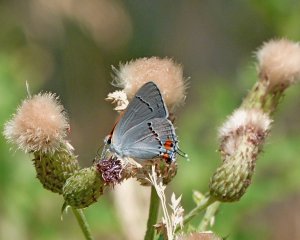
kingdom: Animalia
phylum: Arthropoda
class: Insecta
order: Lepidoptera
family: Lycaenidae
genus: Strymon
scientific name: Strymon melinus
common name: Gray Hairstreak
